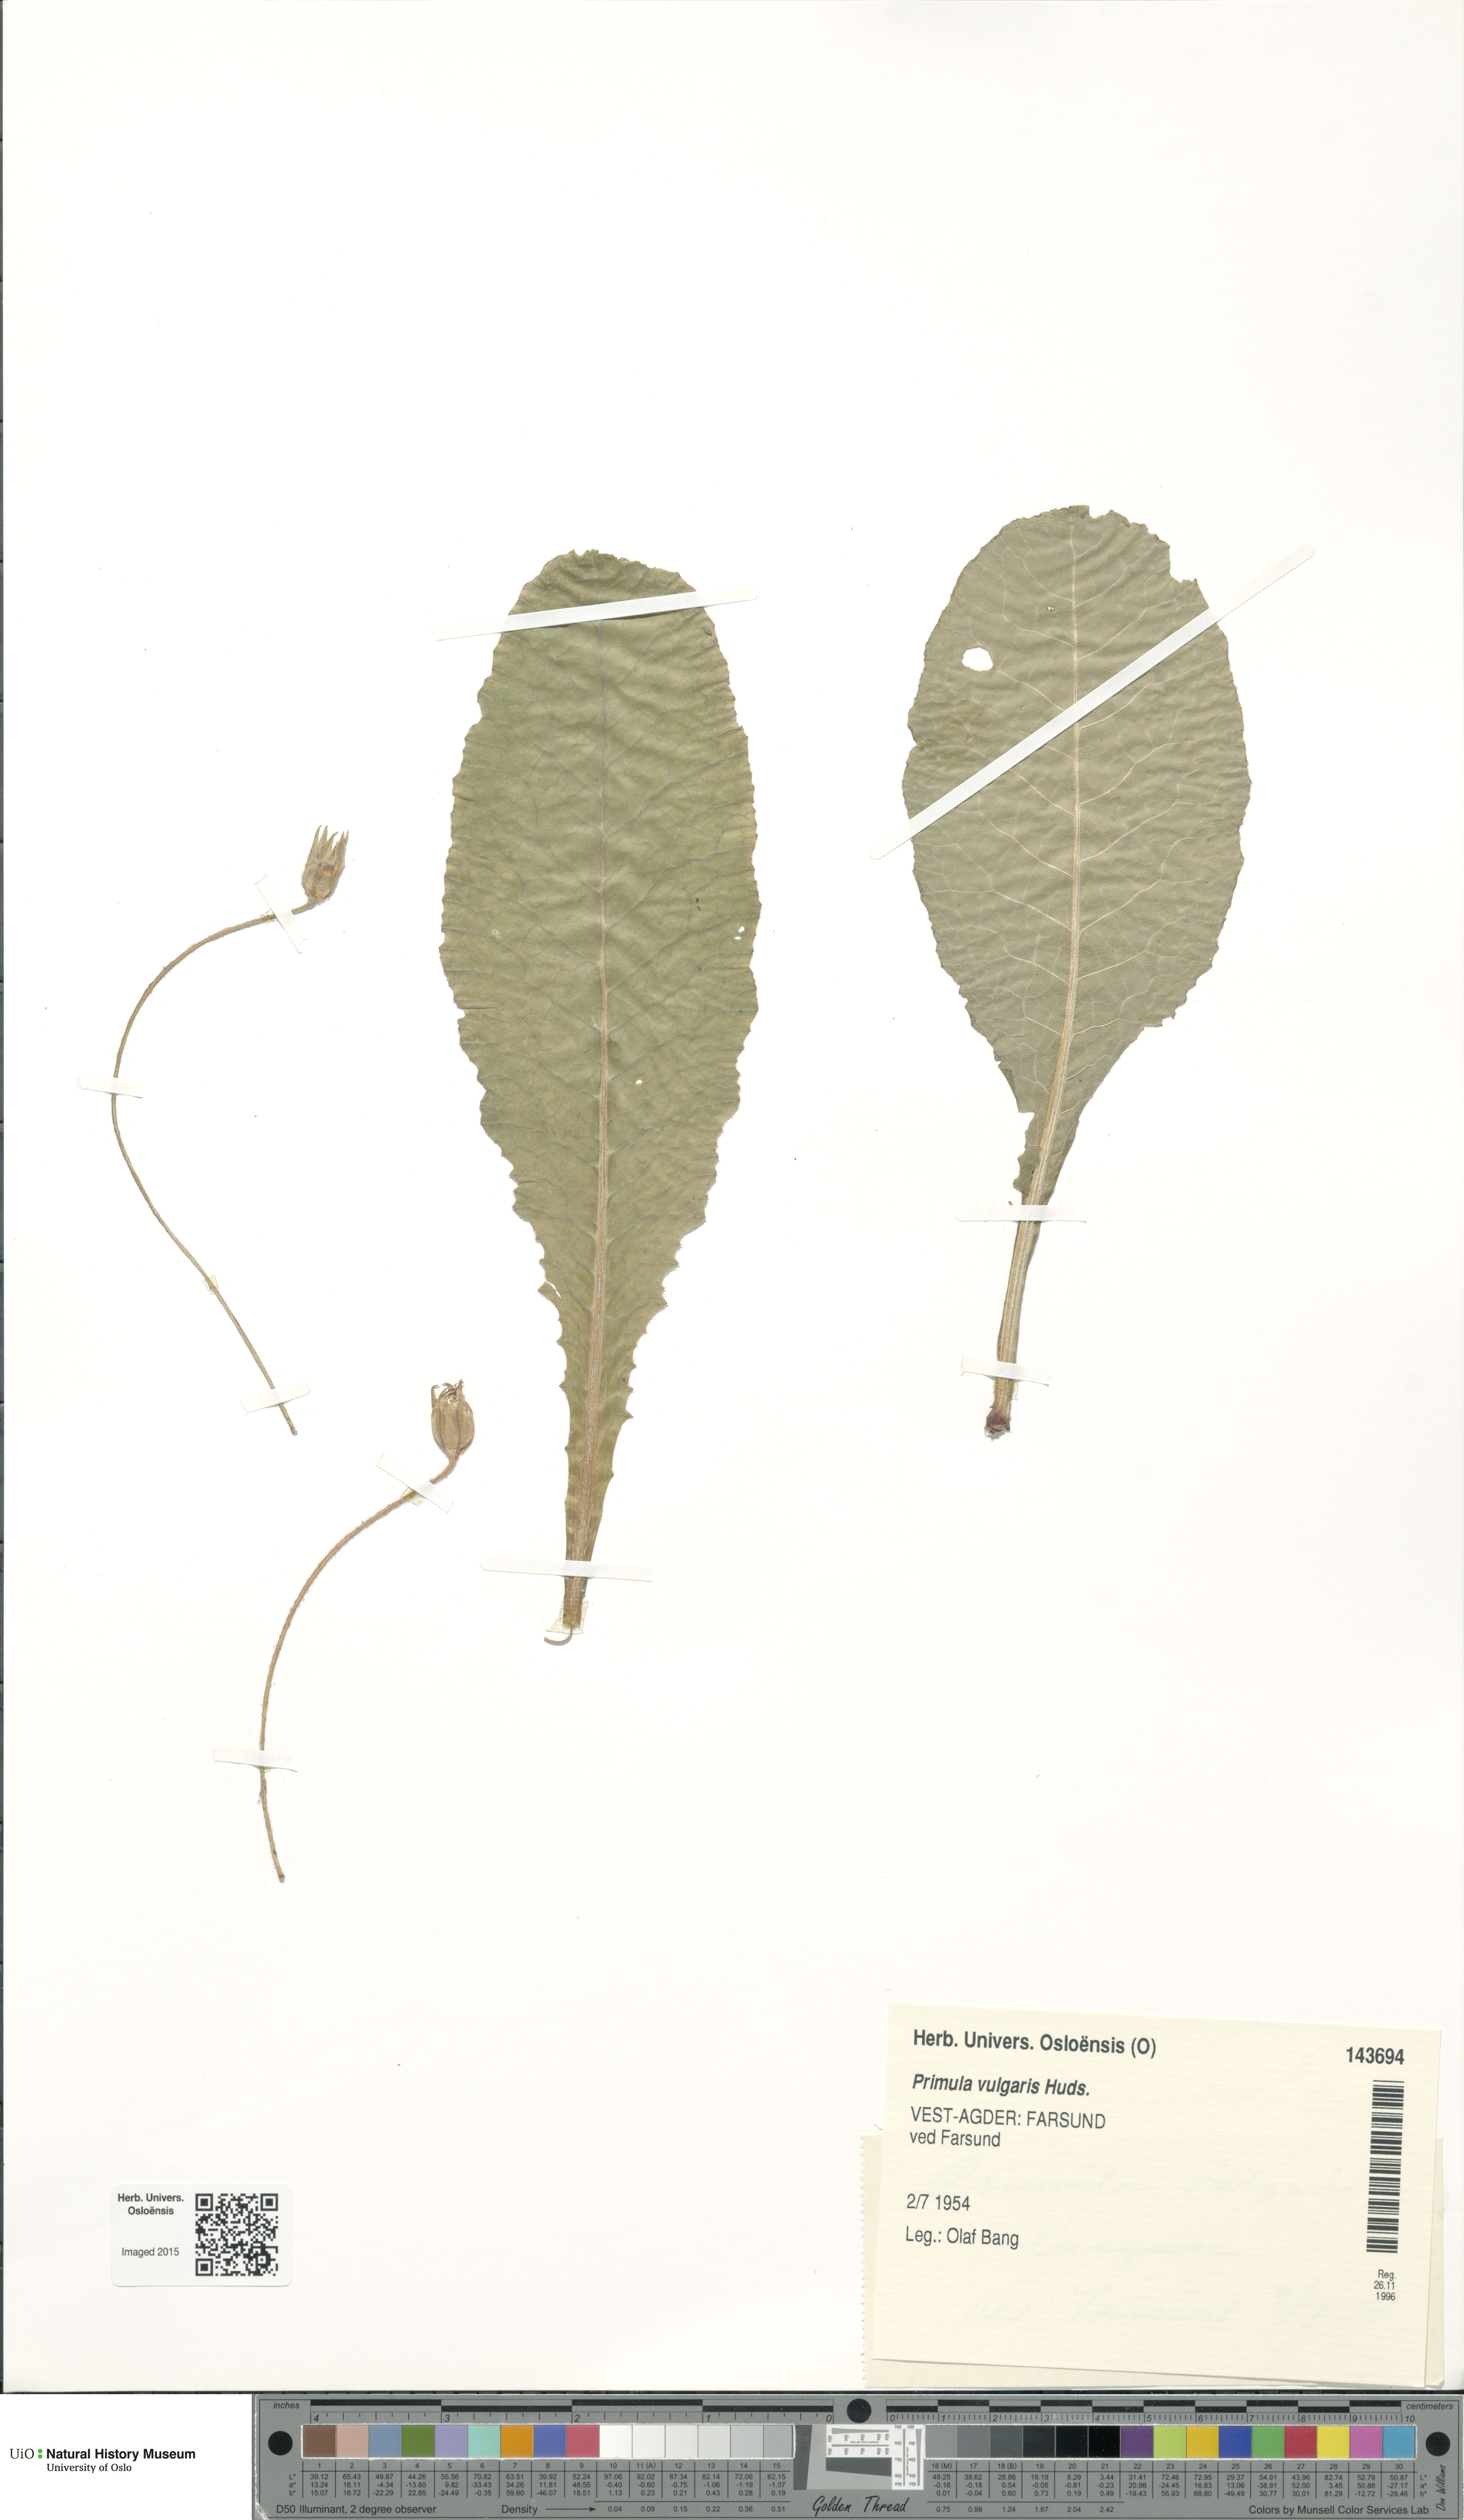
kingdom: Plantae
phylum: Tracheophyta
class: Magnoliopsida
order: Ericales
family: Primulaceae
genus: Primula
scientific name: Primula vulgaris
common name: Primrose
